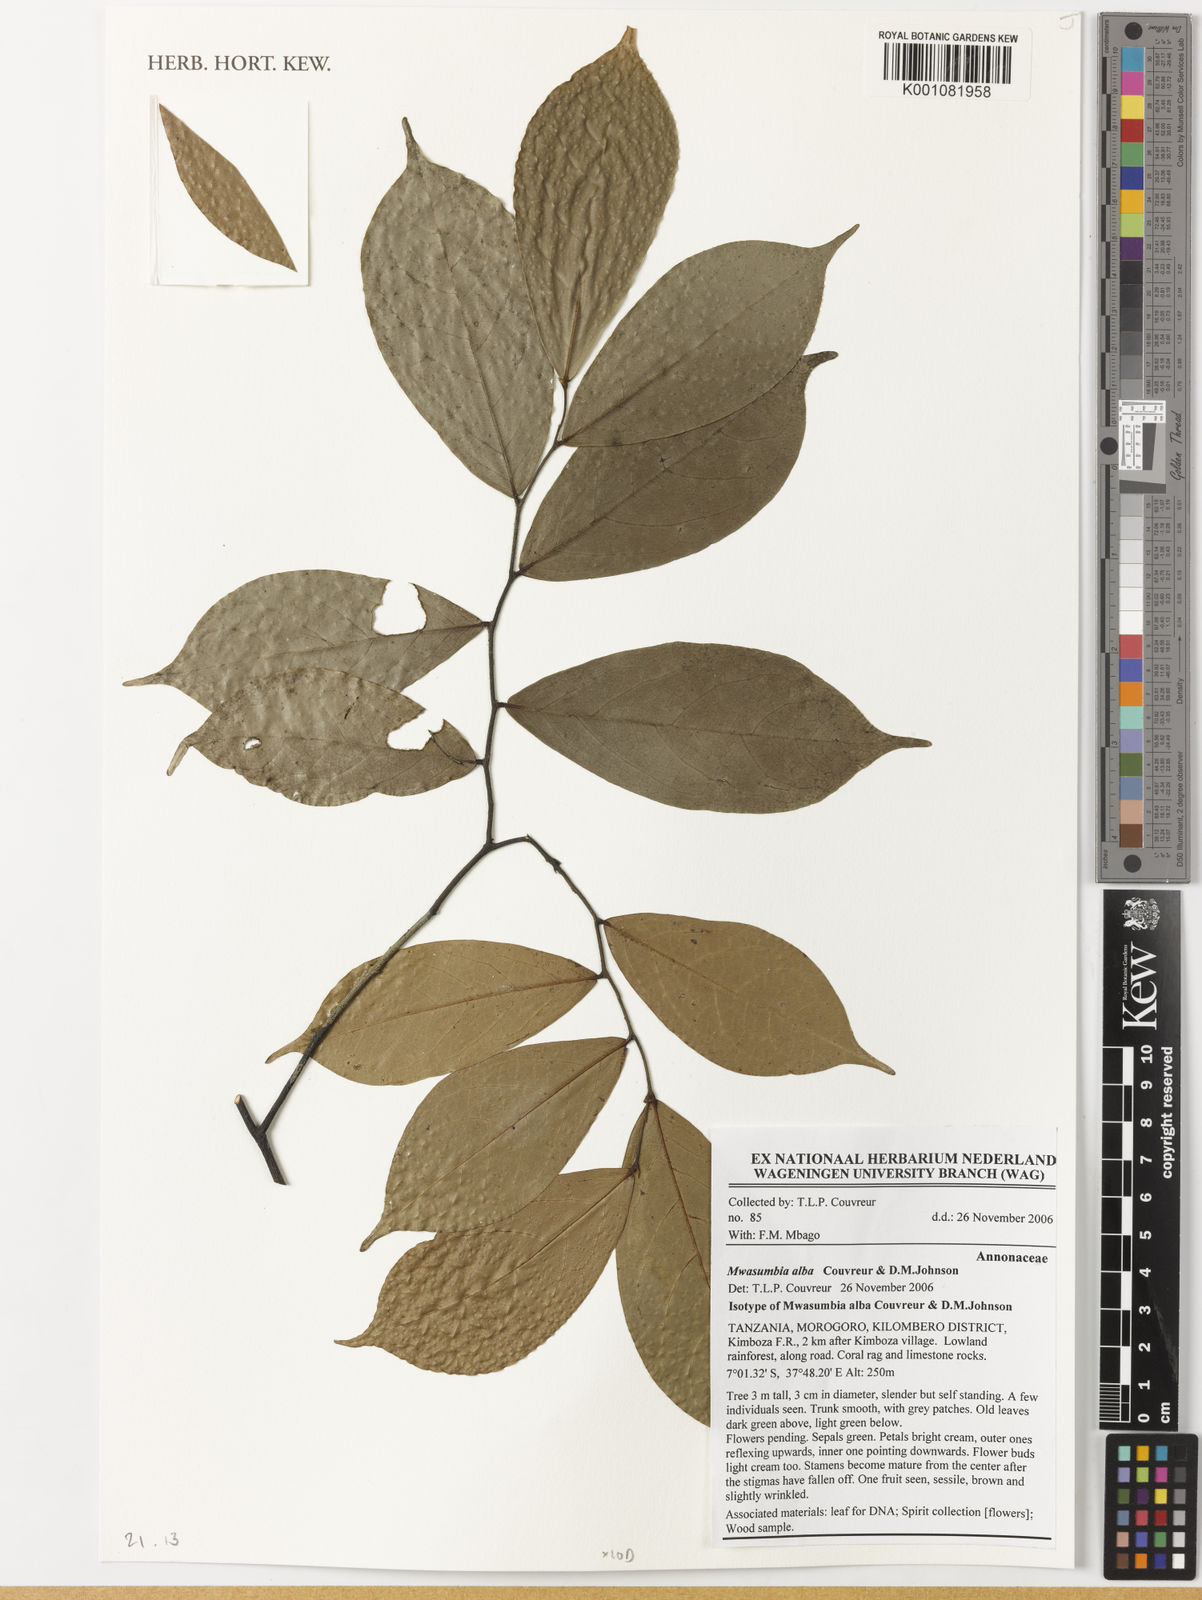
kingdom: Plantae
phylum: Tracheophyta
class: Magnoliopsida
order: Magnoliales
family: Annonaceae
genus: Mwasumbia
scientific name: Mwasumbia alba
